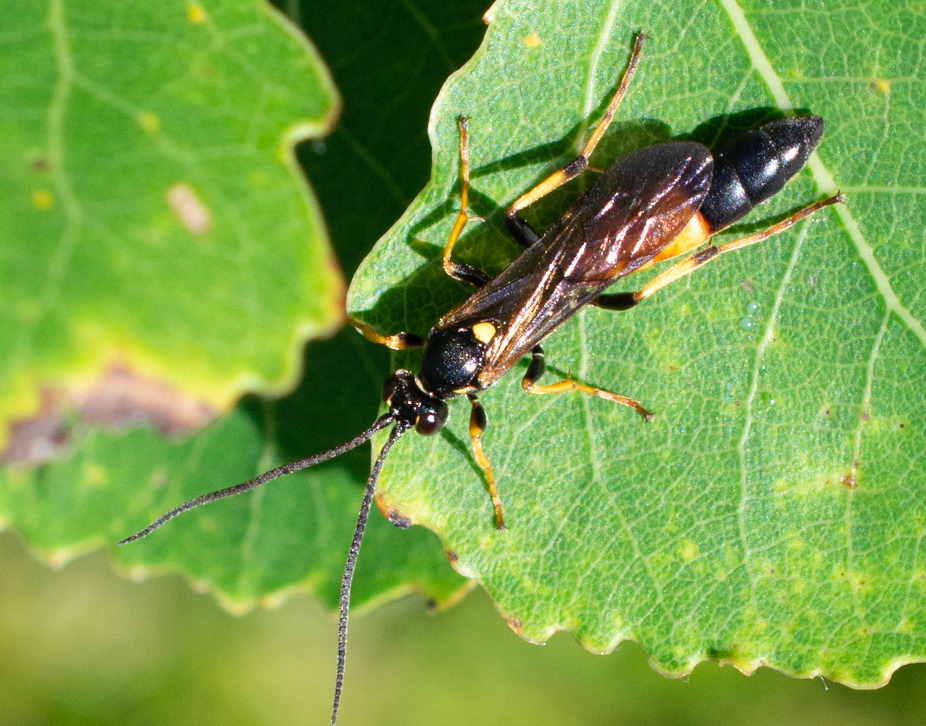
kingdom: Animalia
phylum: Arthropoda
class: Insecta
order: Hymenoptera
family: Ichneumonidae
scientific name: Ichneumonidae
